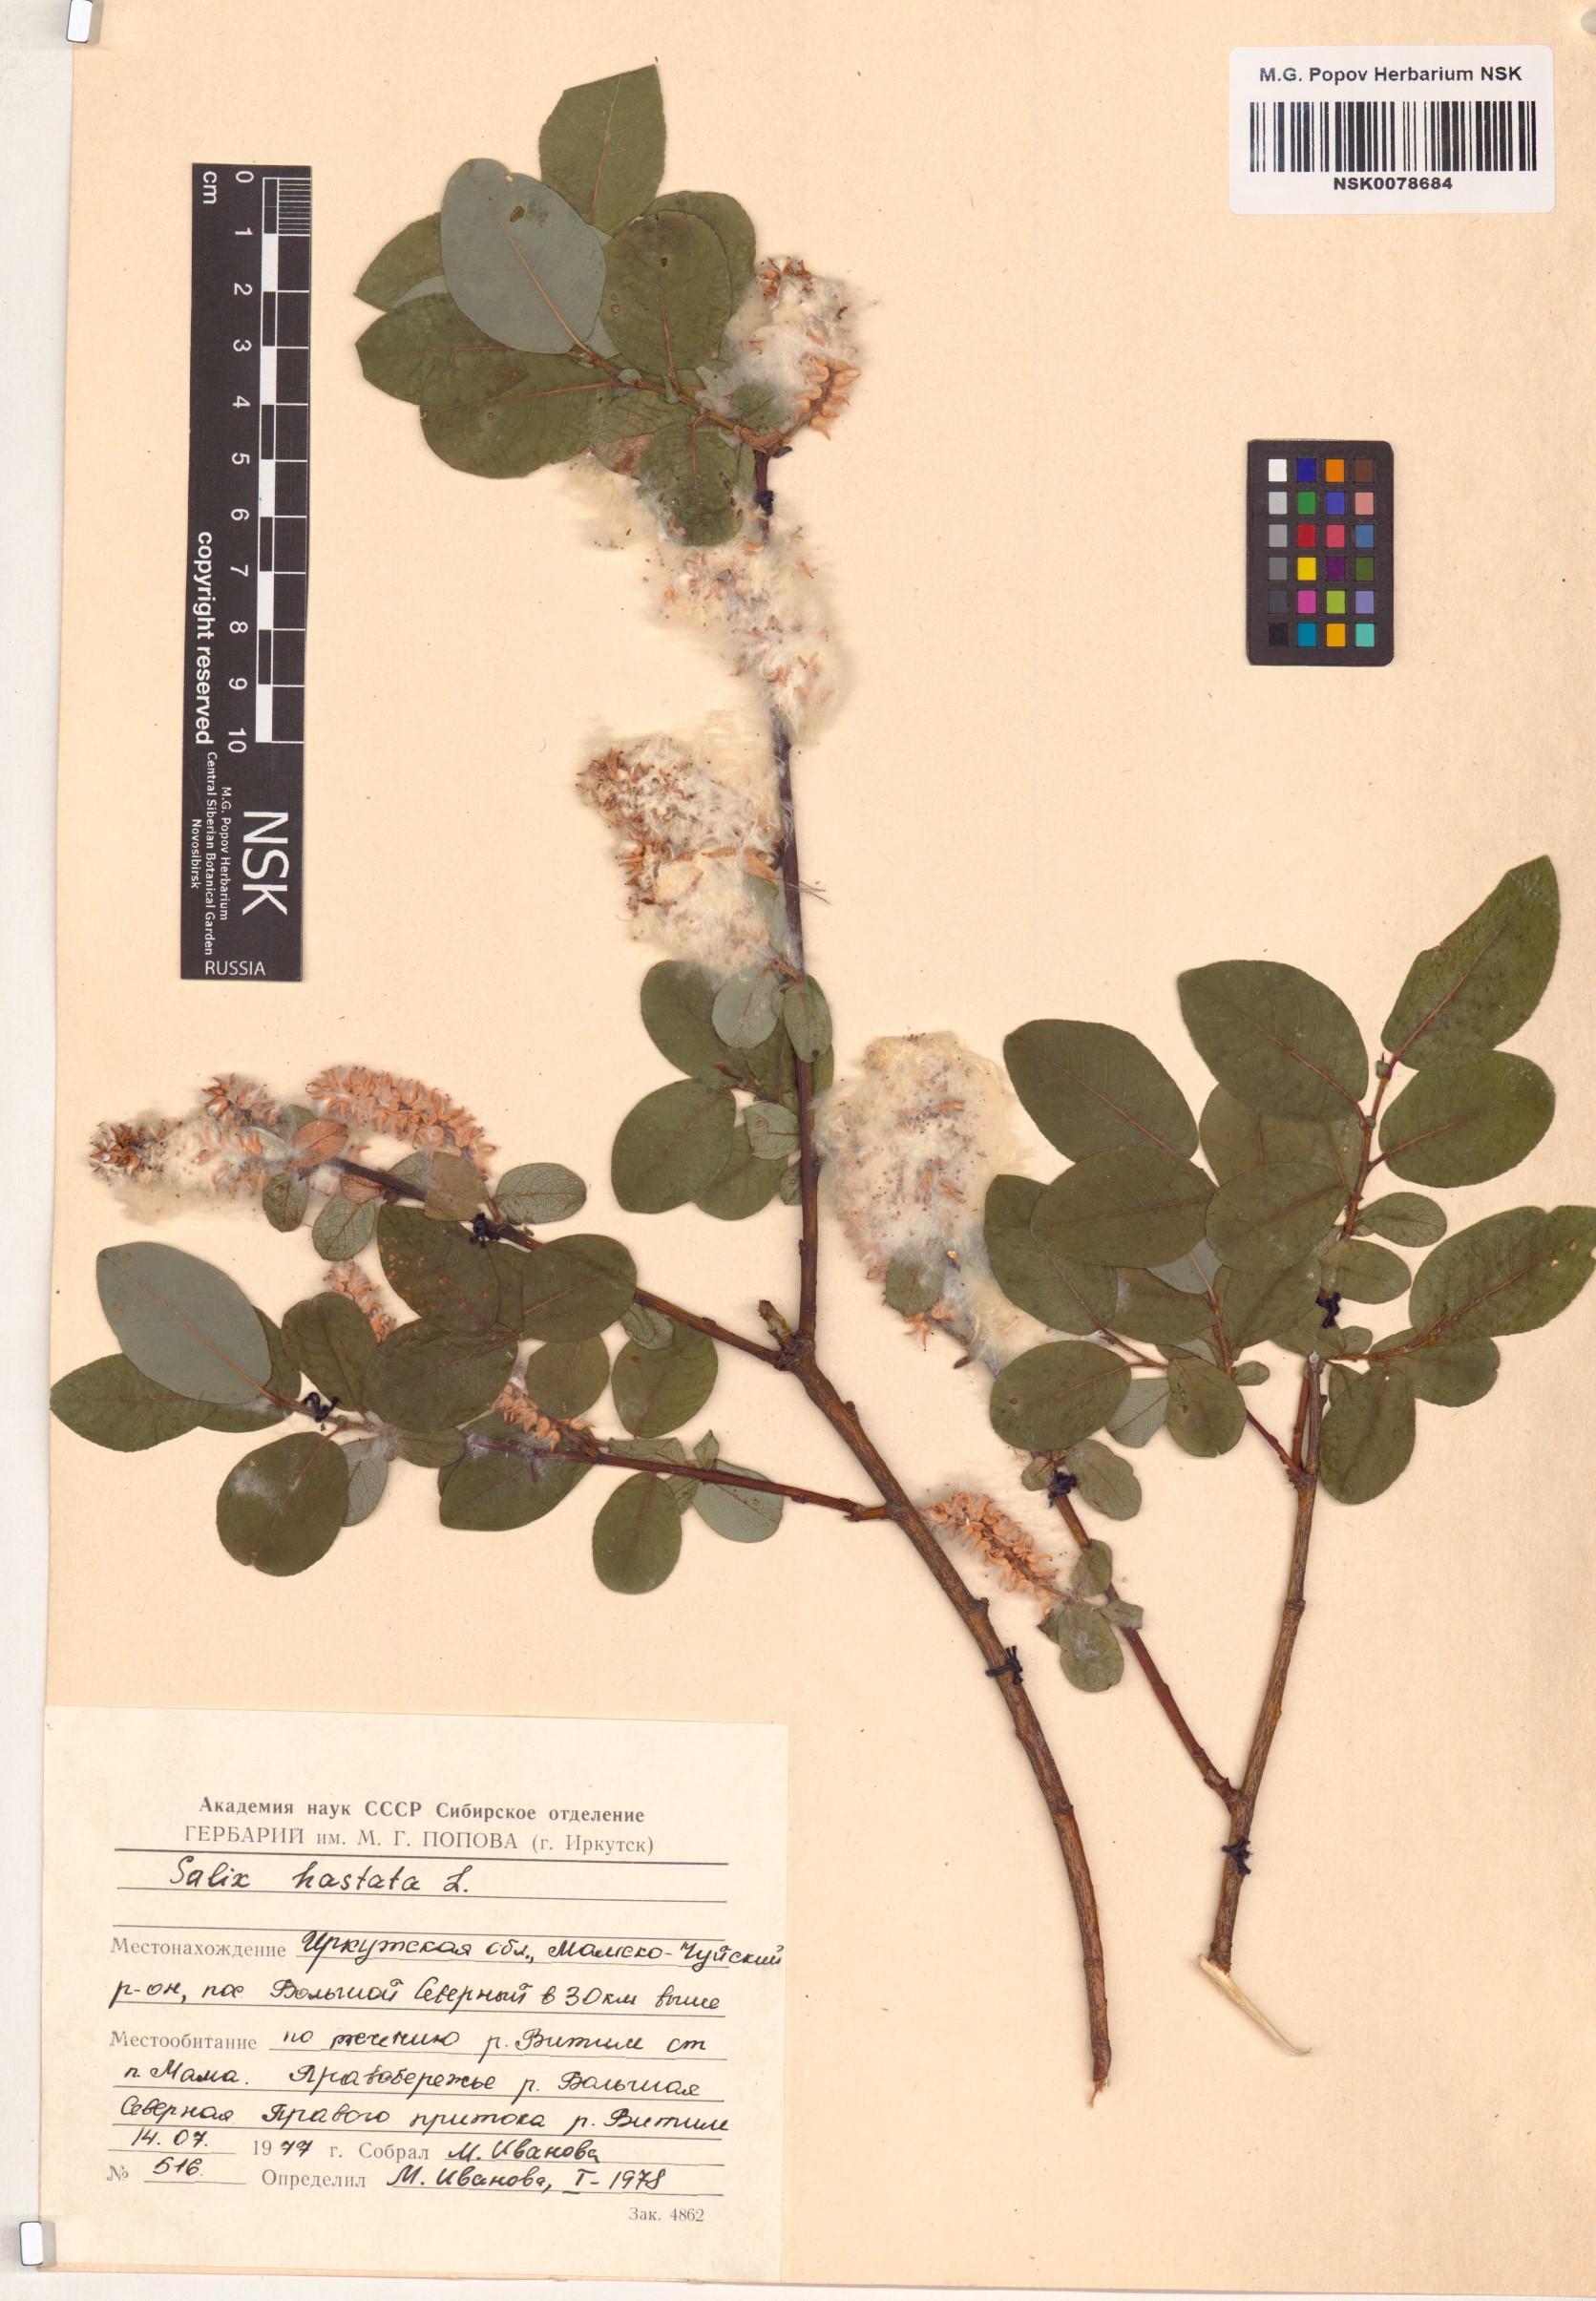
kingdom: Plantae
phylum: Tracheophyta
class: Magnoliopsida
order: Malpighiales
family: Salicaceae
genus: Salix
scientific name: Salix hastata
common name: Halberd willow
